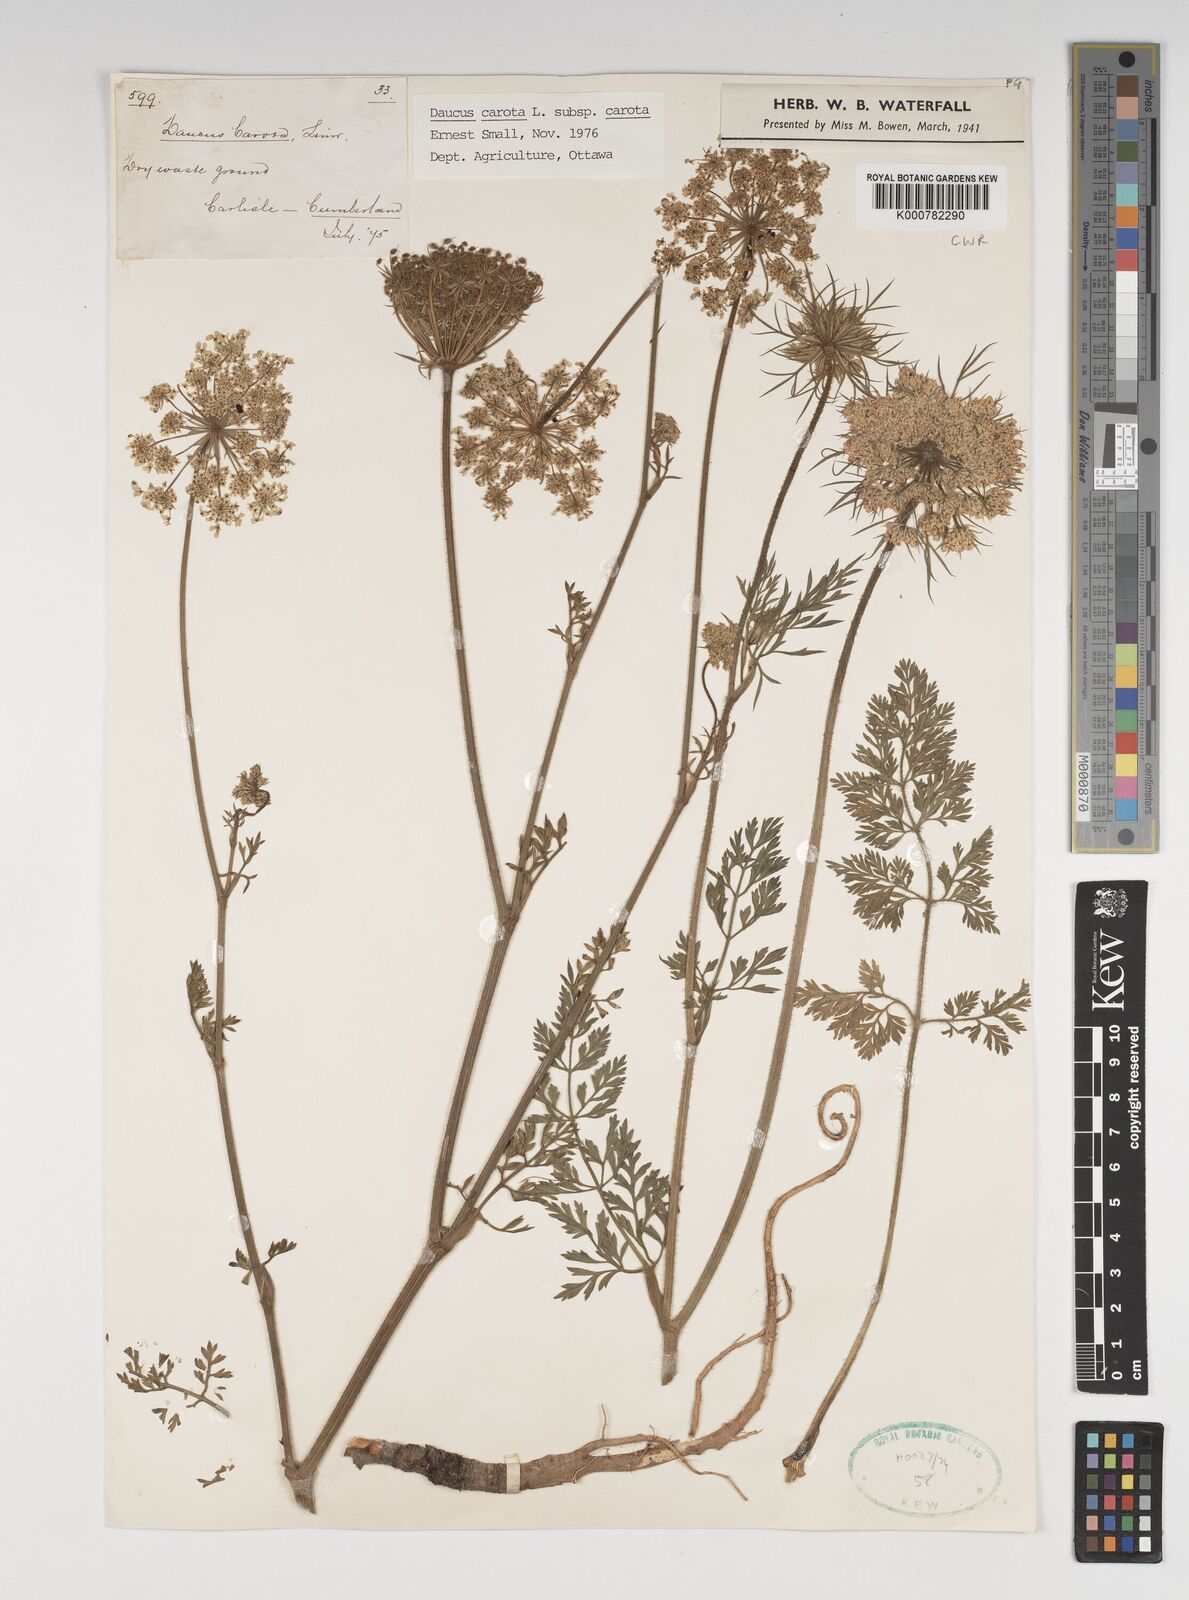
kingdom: Plantae
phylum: Tracheophyta
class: Magnoliopsida
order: Apiales
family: Apiaceae
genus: Daucus
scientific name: Daucus carota
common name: Wild carrot
